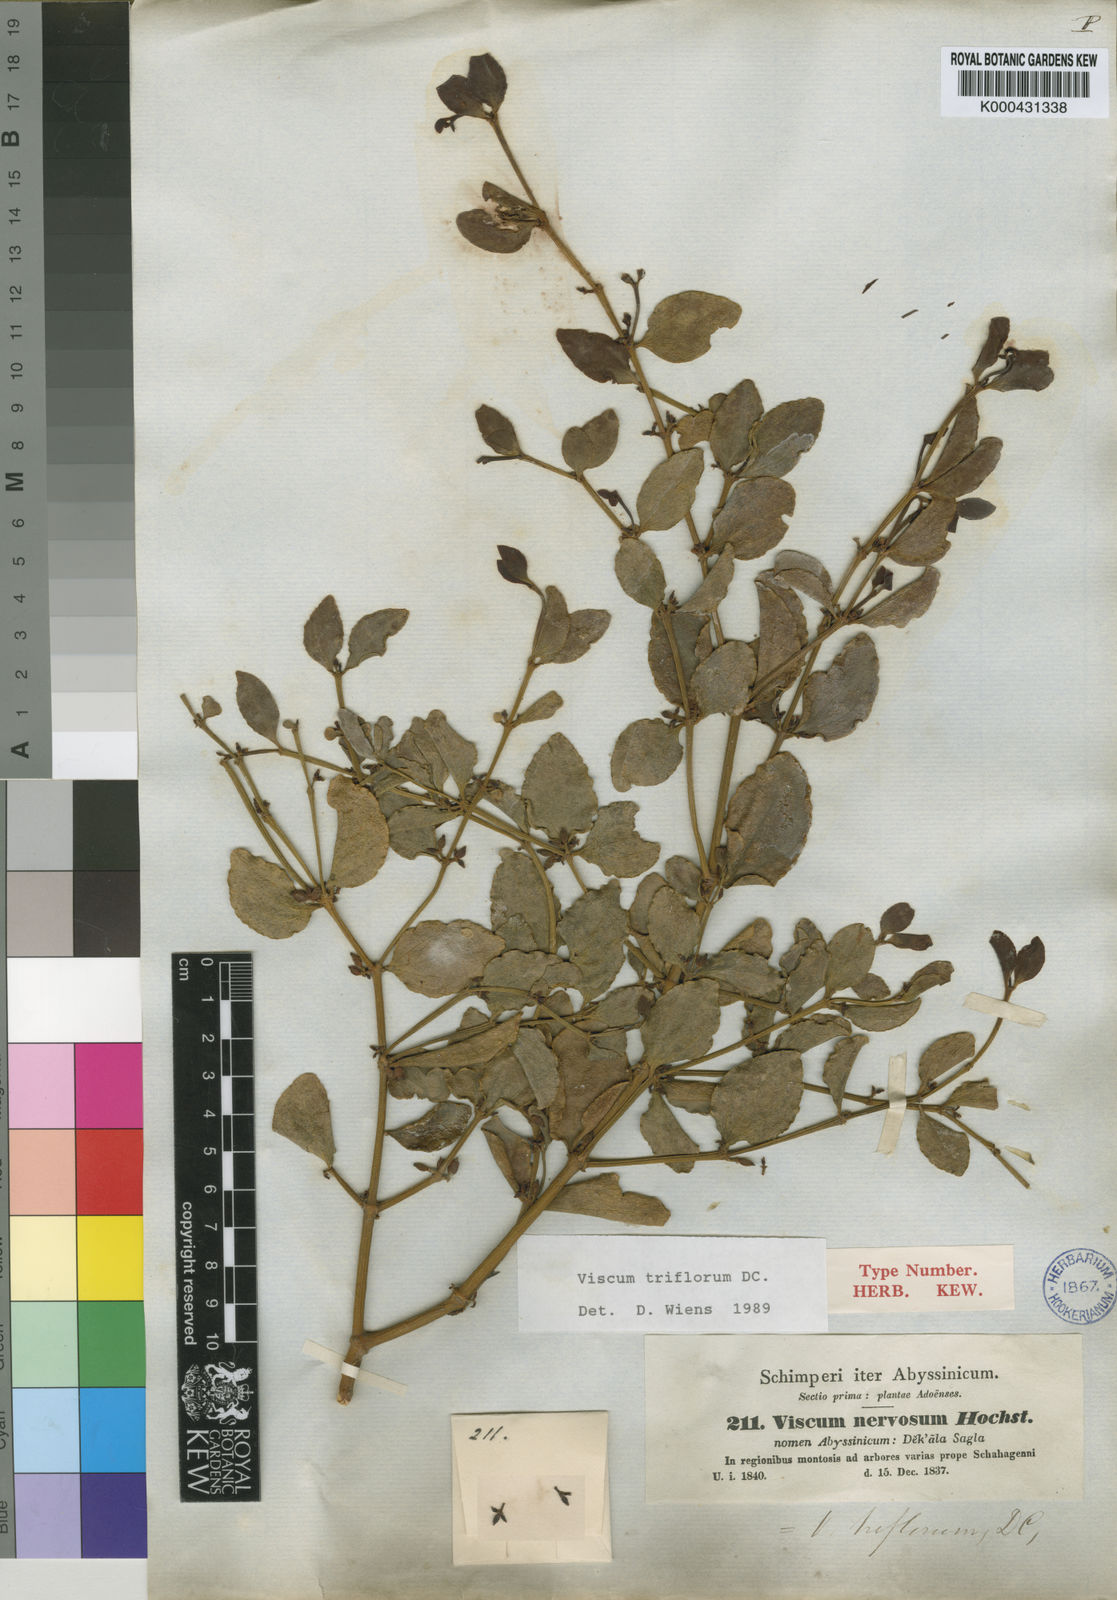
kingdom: Plantae
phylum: Tracheophyta
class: Magnoliopsida
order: Santalales
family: Viscaceae
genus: Viscum
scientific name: Viscum triflorum
